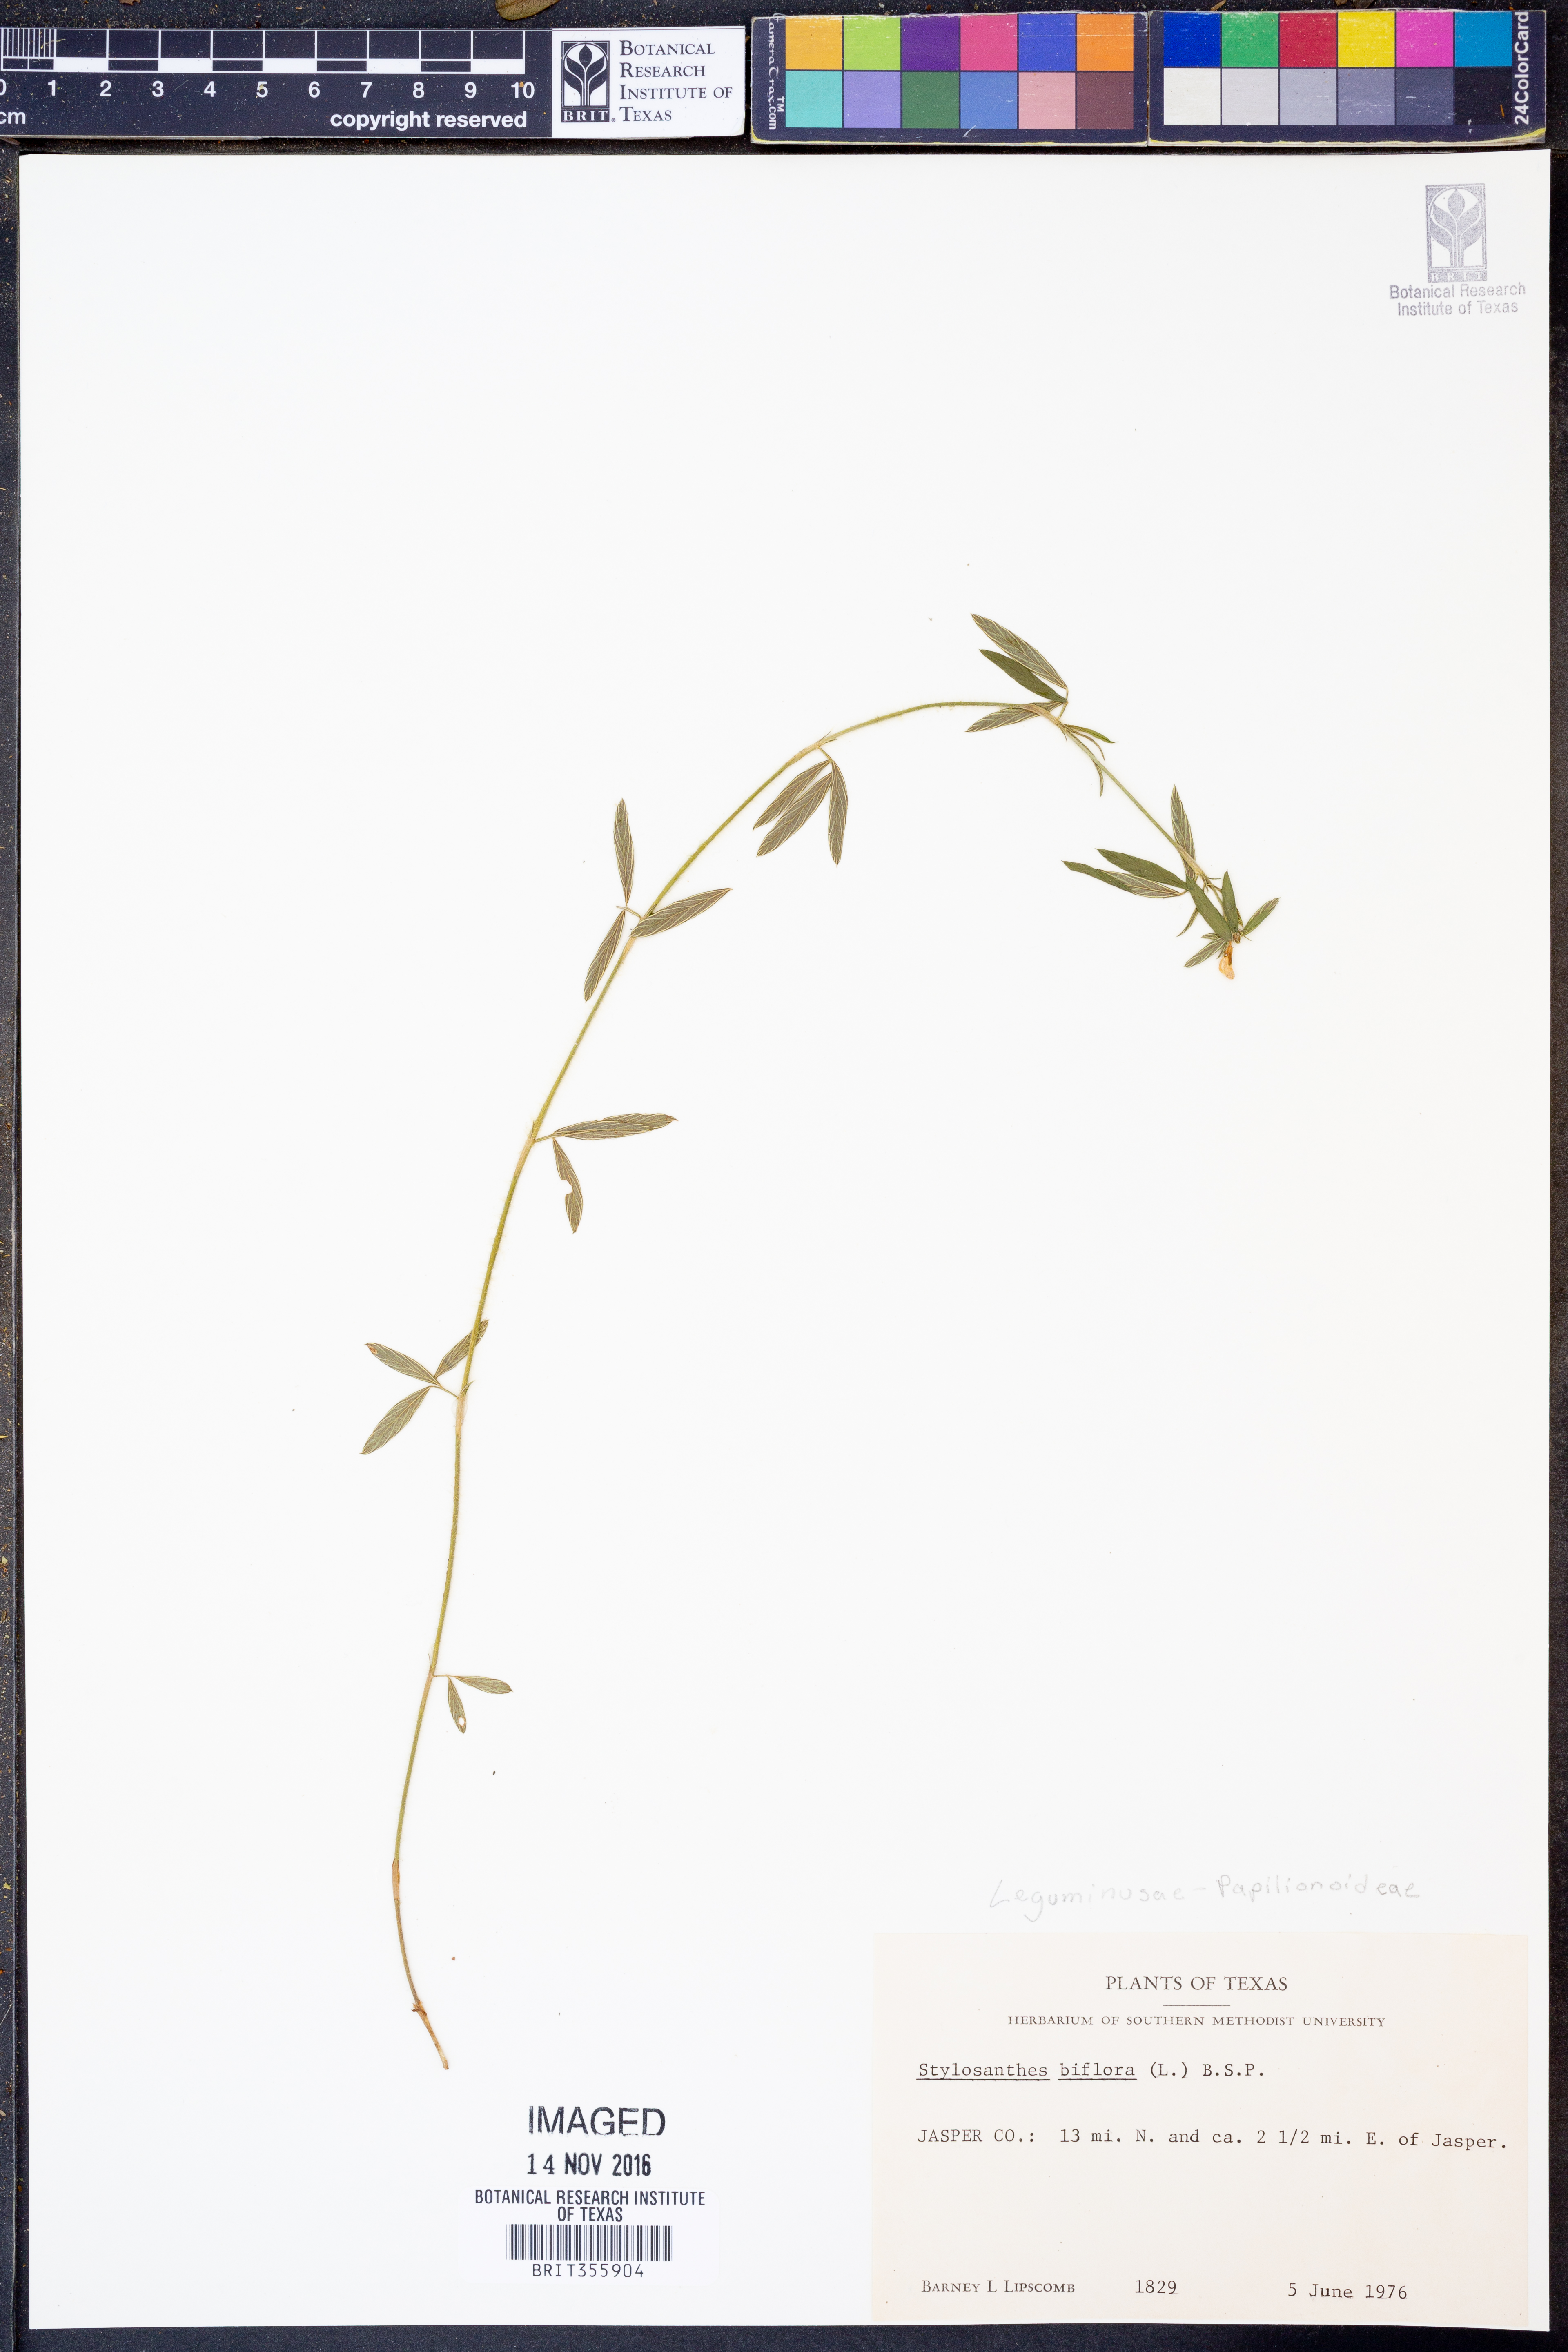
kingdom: Plantae
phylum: Tracheophyta
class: Magnoliopsida
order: Fabales
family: Fabaceae
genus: Stylosanthes
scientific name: Stylosanthes biflora
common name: Two-flower pencil-flower
